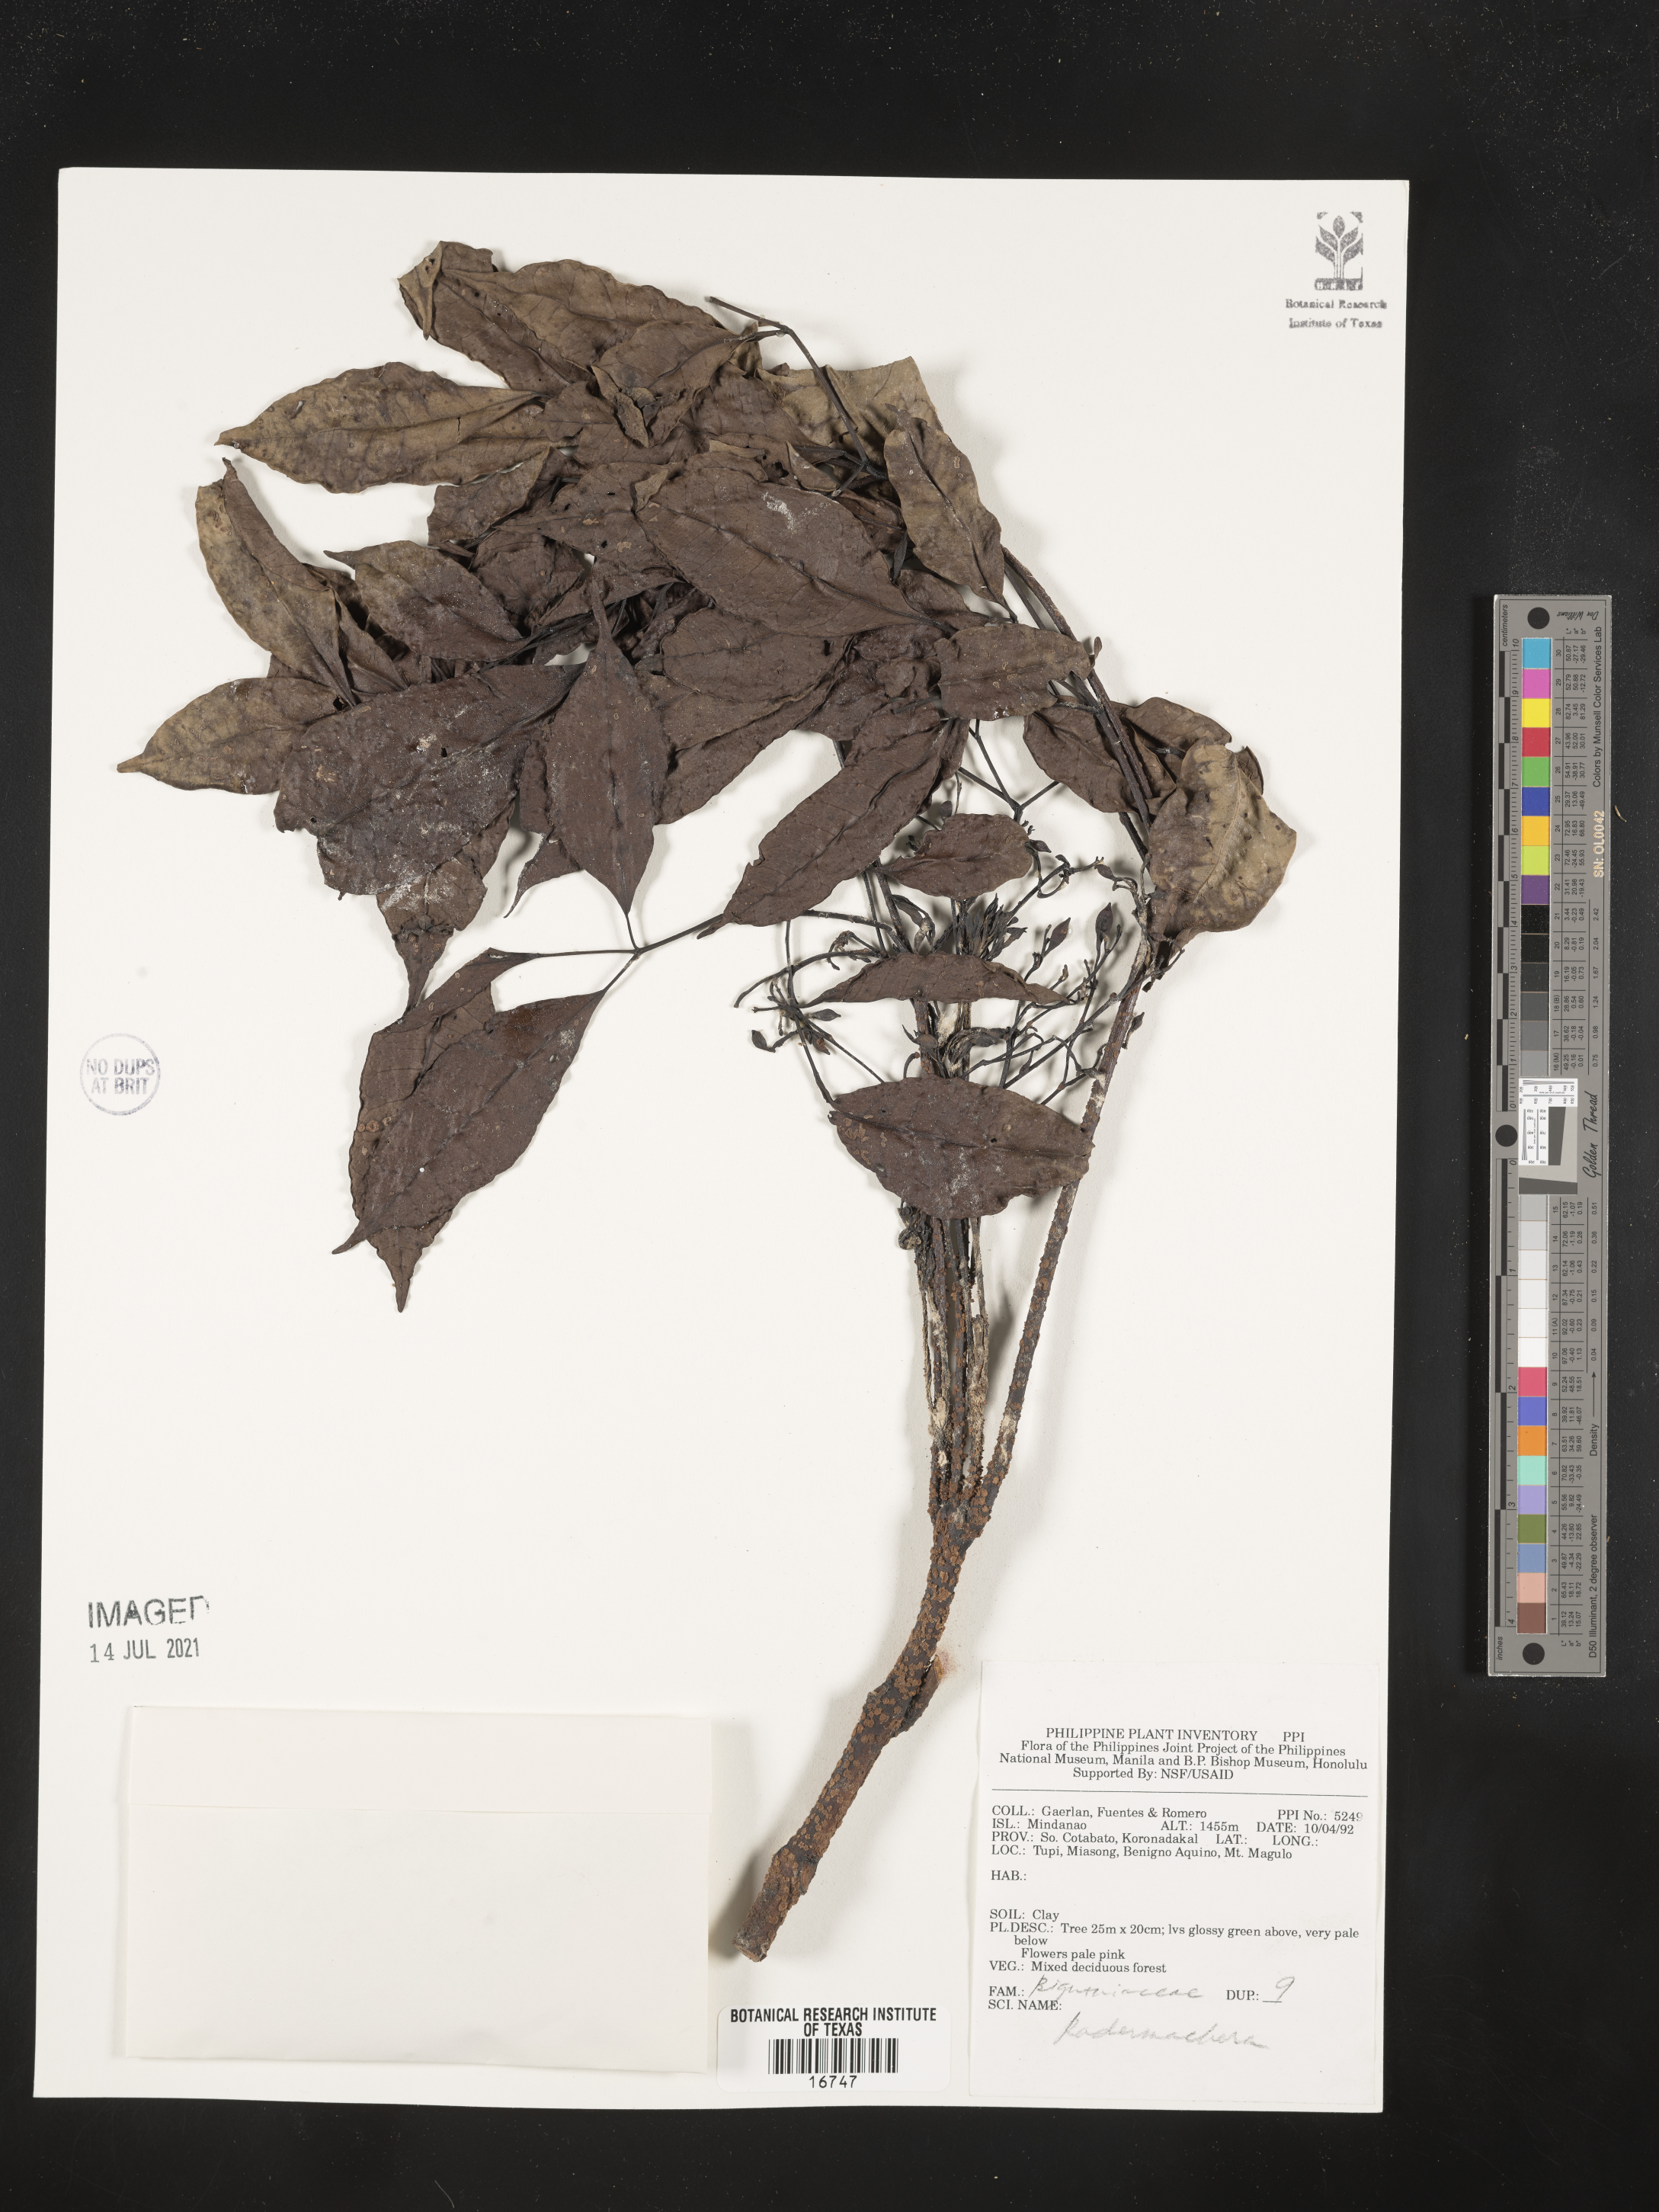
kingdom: Plantae
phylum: Tracheophyta
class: Magnoliopsida
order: Lamiales
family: Bignoniaceae
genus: Radermachera
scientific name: Radermachera
